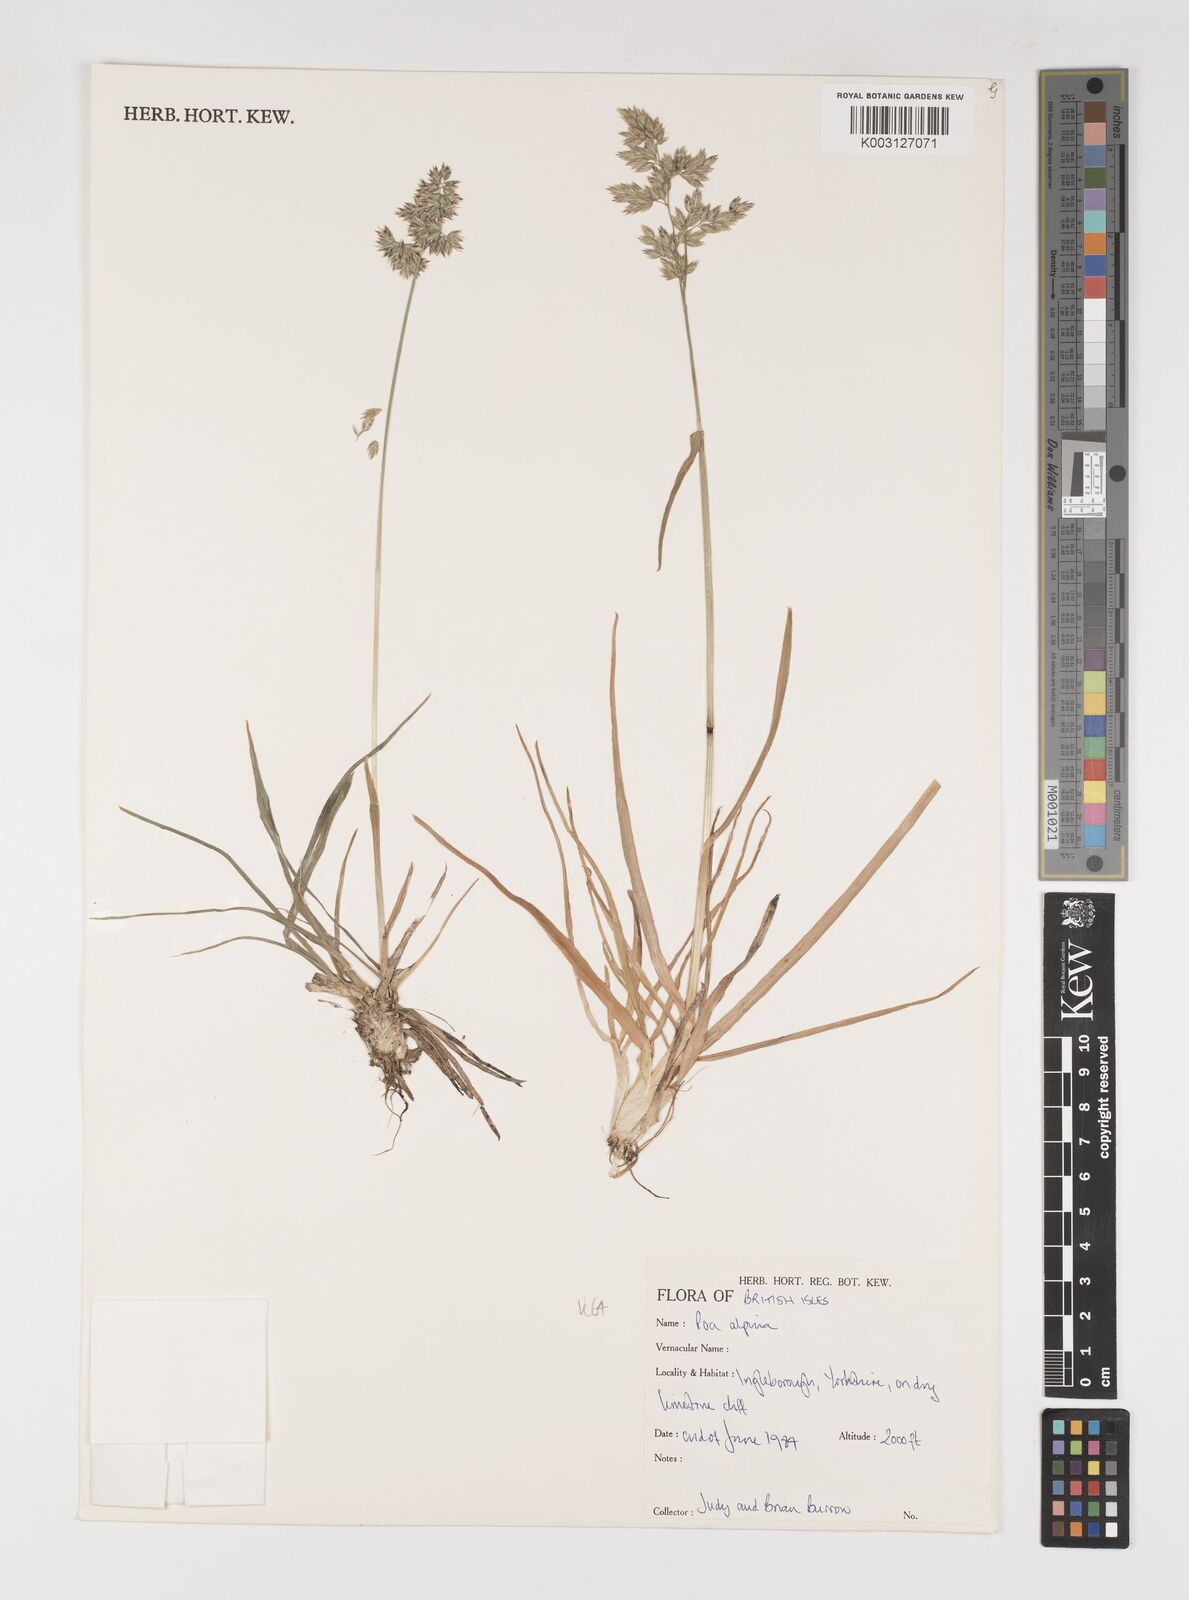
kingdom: Plantae
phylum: Tracheophyta
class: Liliopsida
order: Poales
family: Poaceae
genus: Poa
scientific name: Poa alpina
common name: Alpine bluegrass
